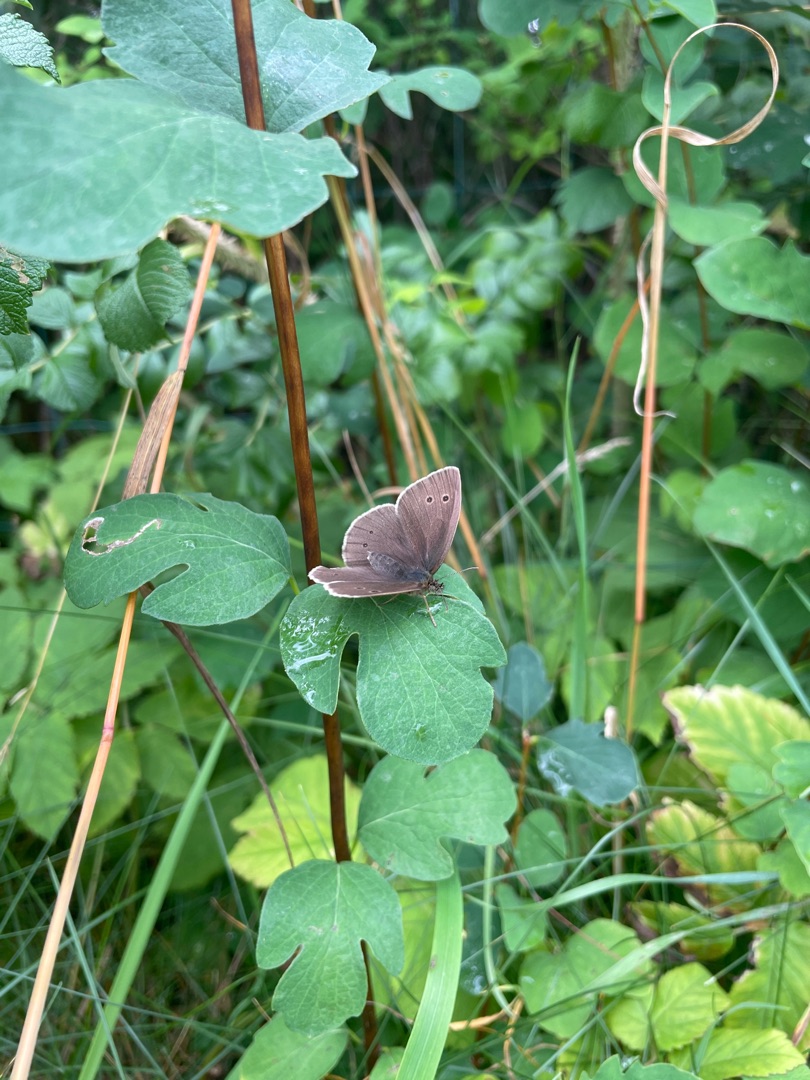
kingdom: Animalia
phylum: Arthropoda
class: Insecta
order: Lepidoptera
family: Nymphalidae
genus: Aphantopus
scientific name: Aphantopus hyperantus
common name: Engrandøje
